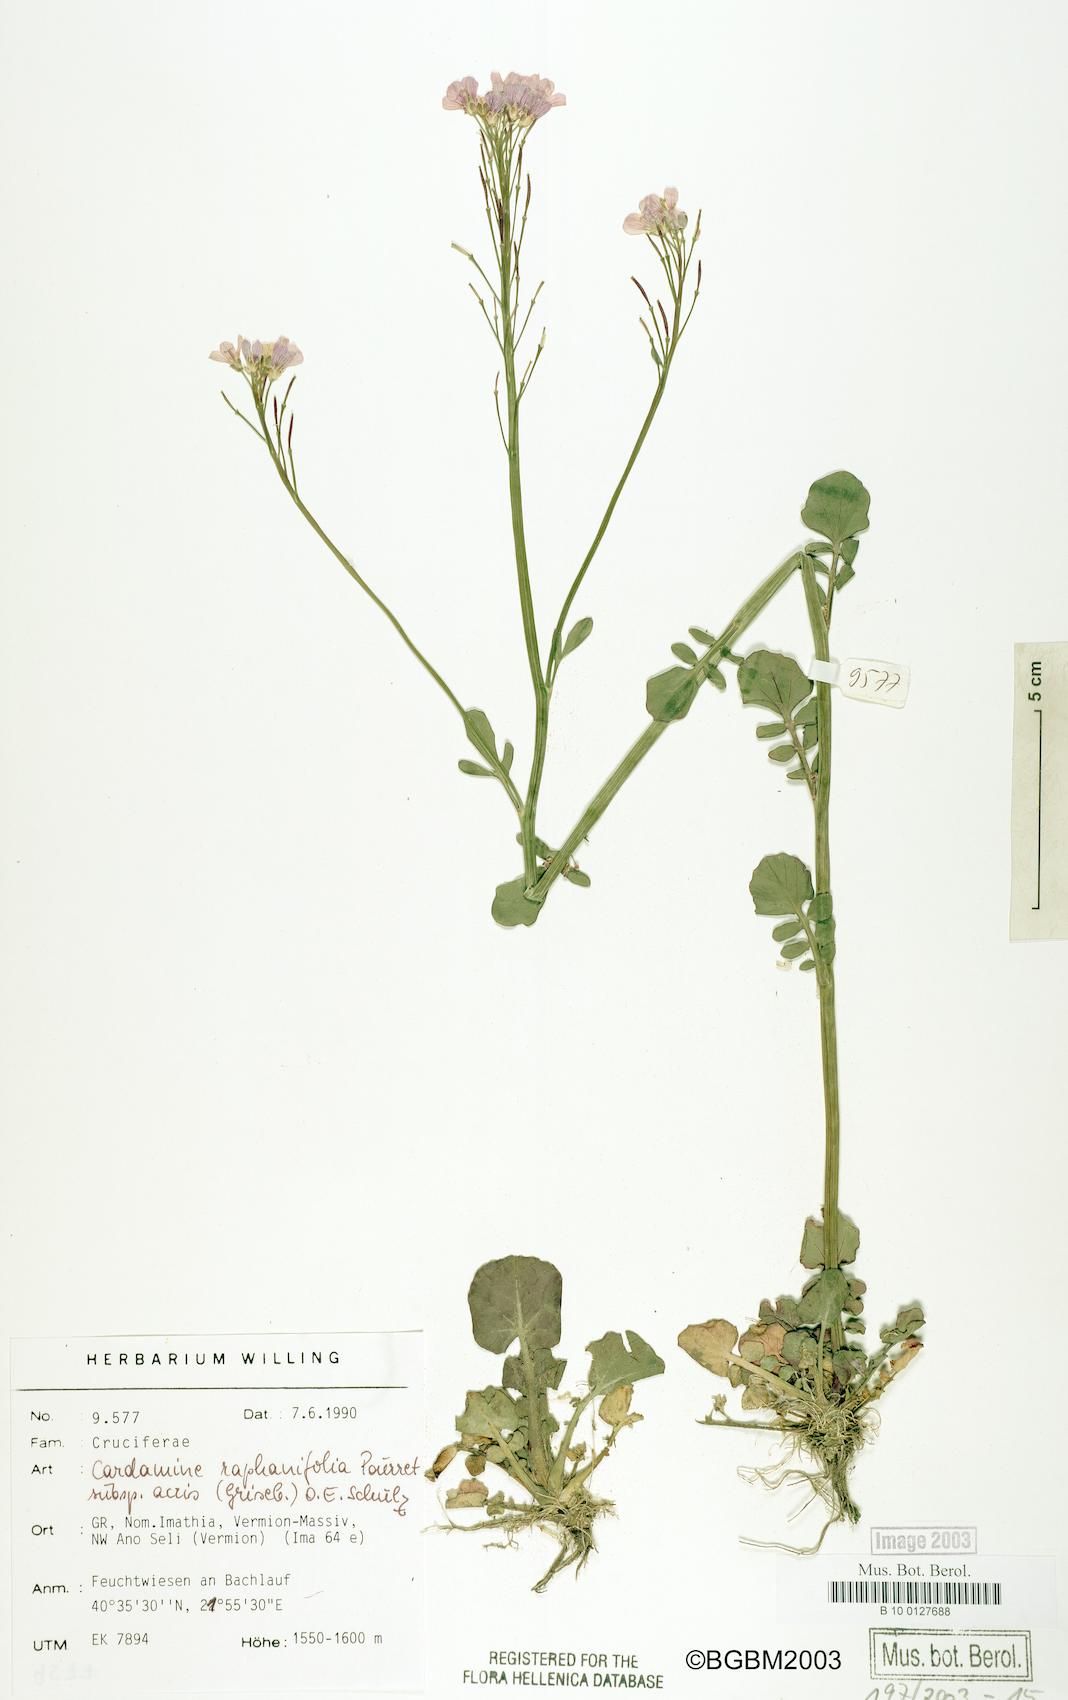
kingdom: Plantae
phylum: Tracheophyta
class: Magnoliopsida
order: Brassicales
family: Brassicaceae
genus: Cardamine
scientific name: Cardamine raphanifolia
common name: Greater cuckooflower
